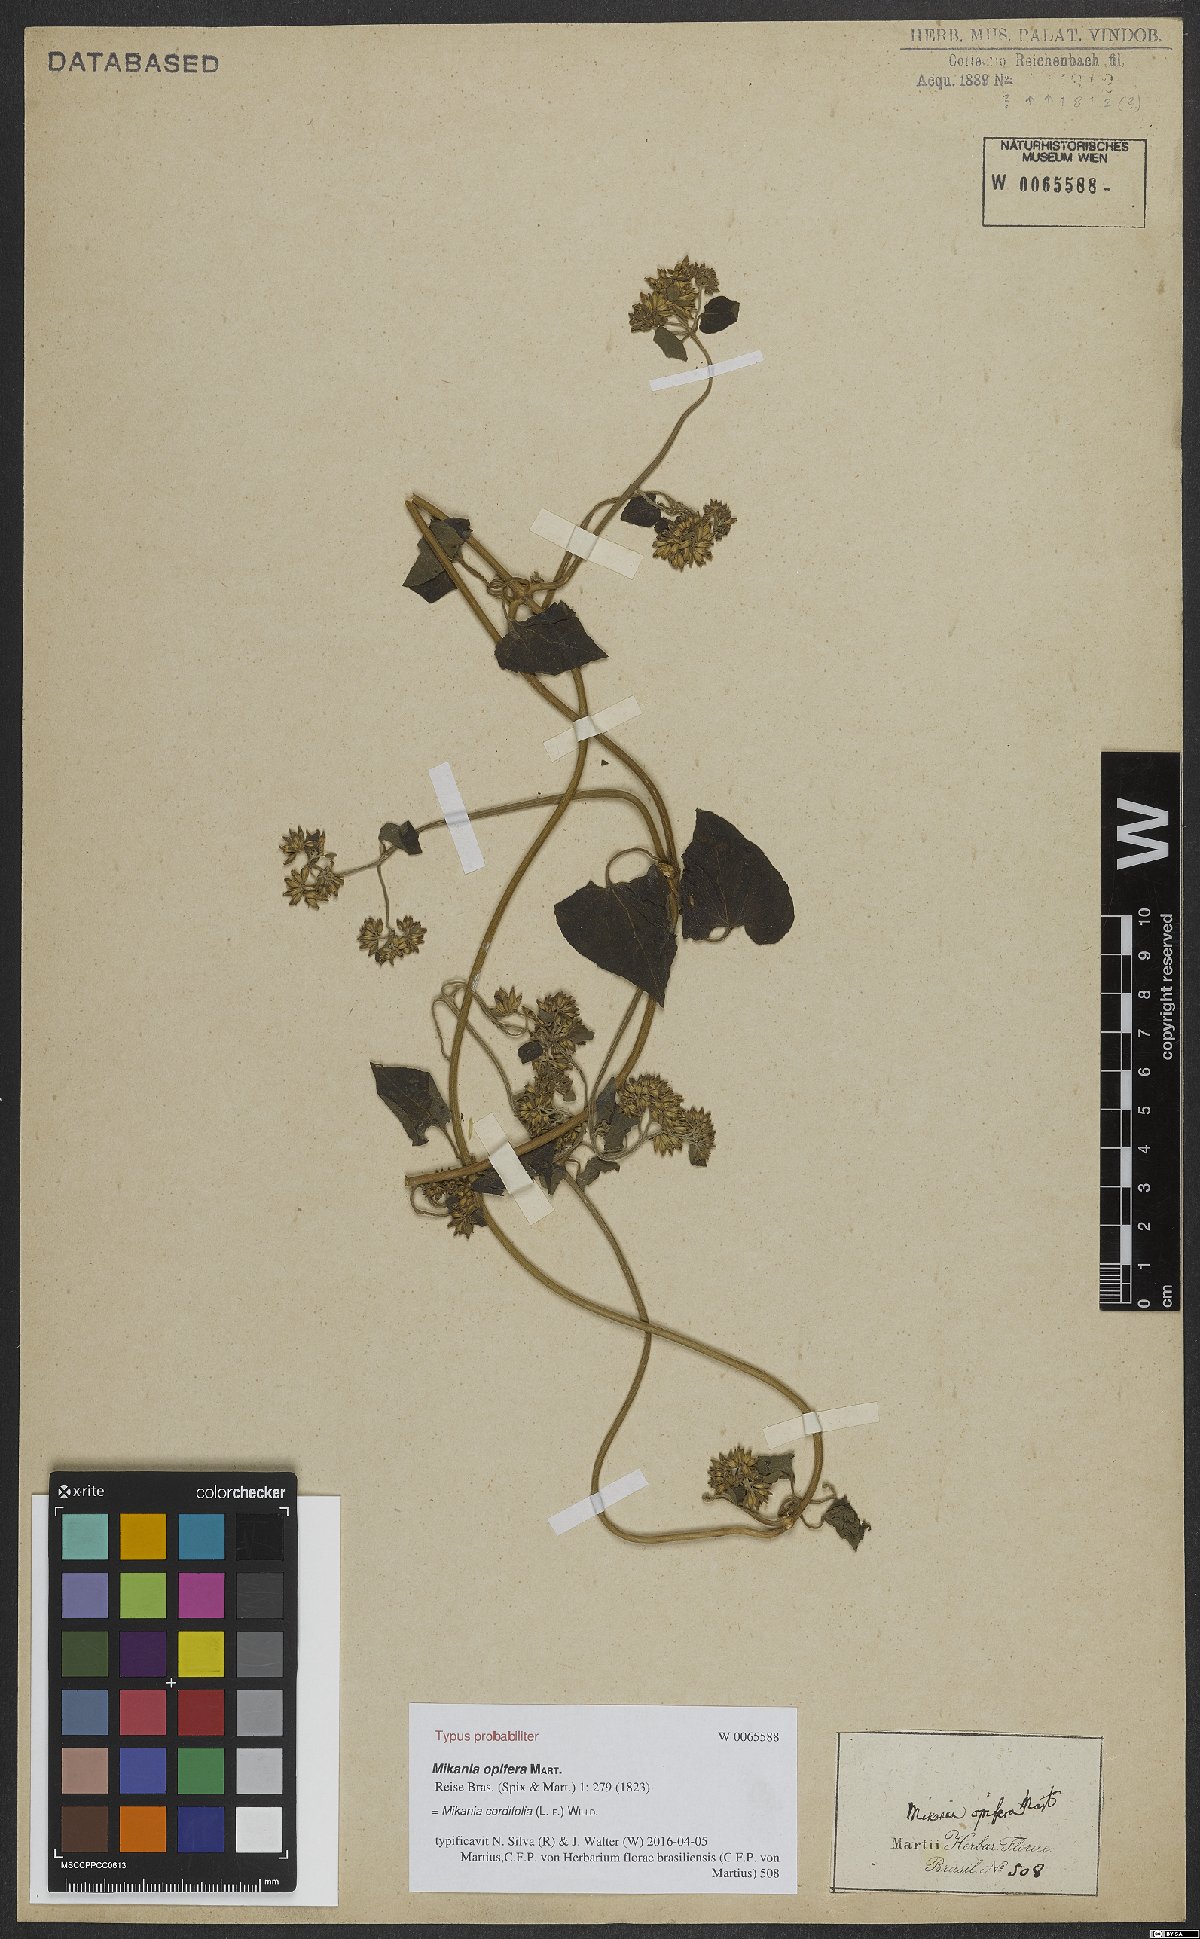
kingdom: Plantae
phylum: Tracheophyta
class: Magnoliopsida
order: Asterales
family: Asteraceae
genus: Mikania
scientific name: Mikania cordifolia
